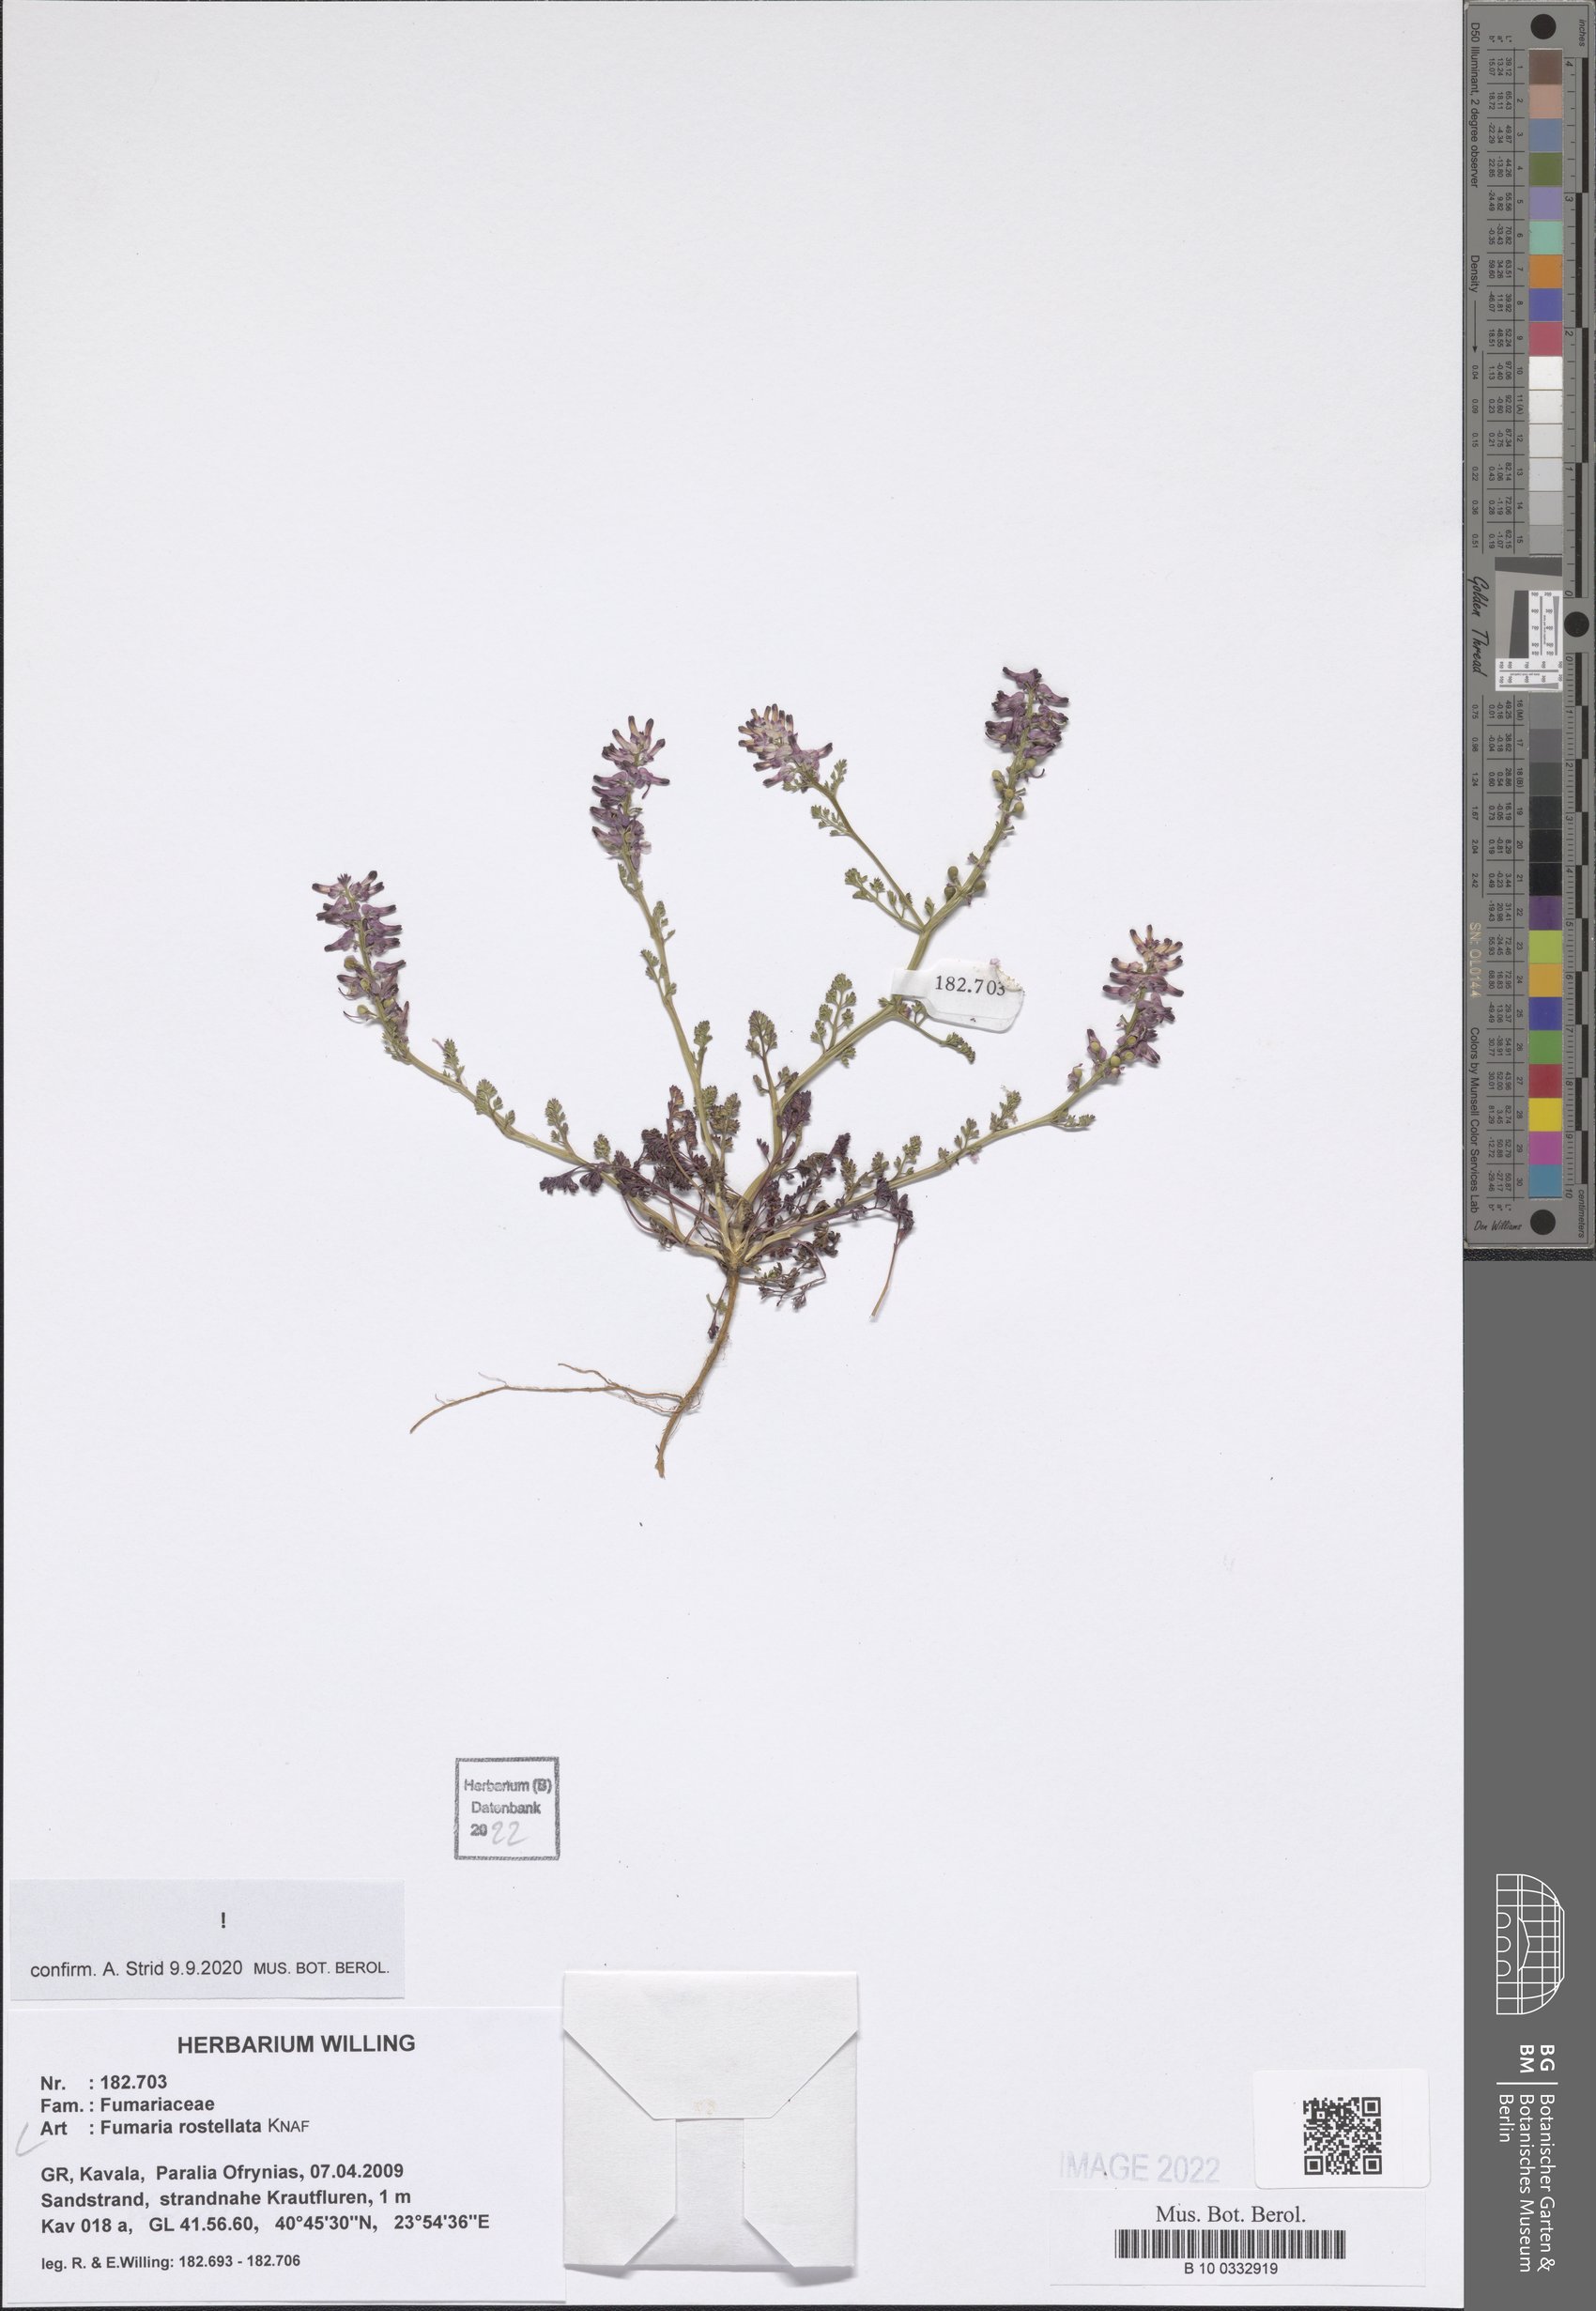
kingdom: Plantae
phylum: Tracheophyta
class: Magnoliopsida
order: Ranunculales
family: Papaveraceae
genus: Fumaria
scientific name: Fumaria rostellata
